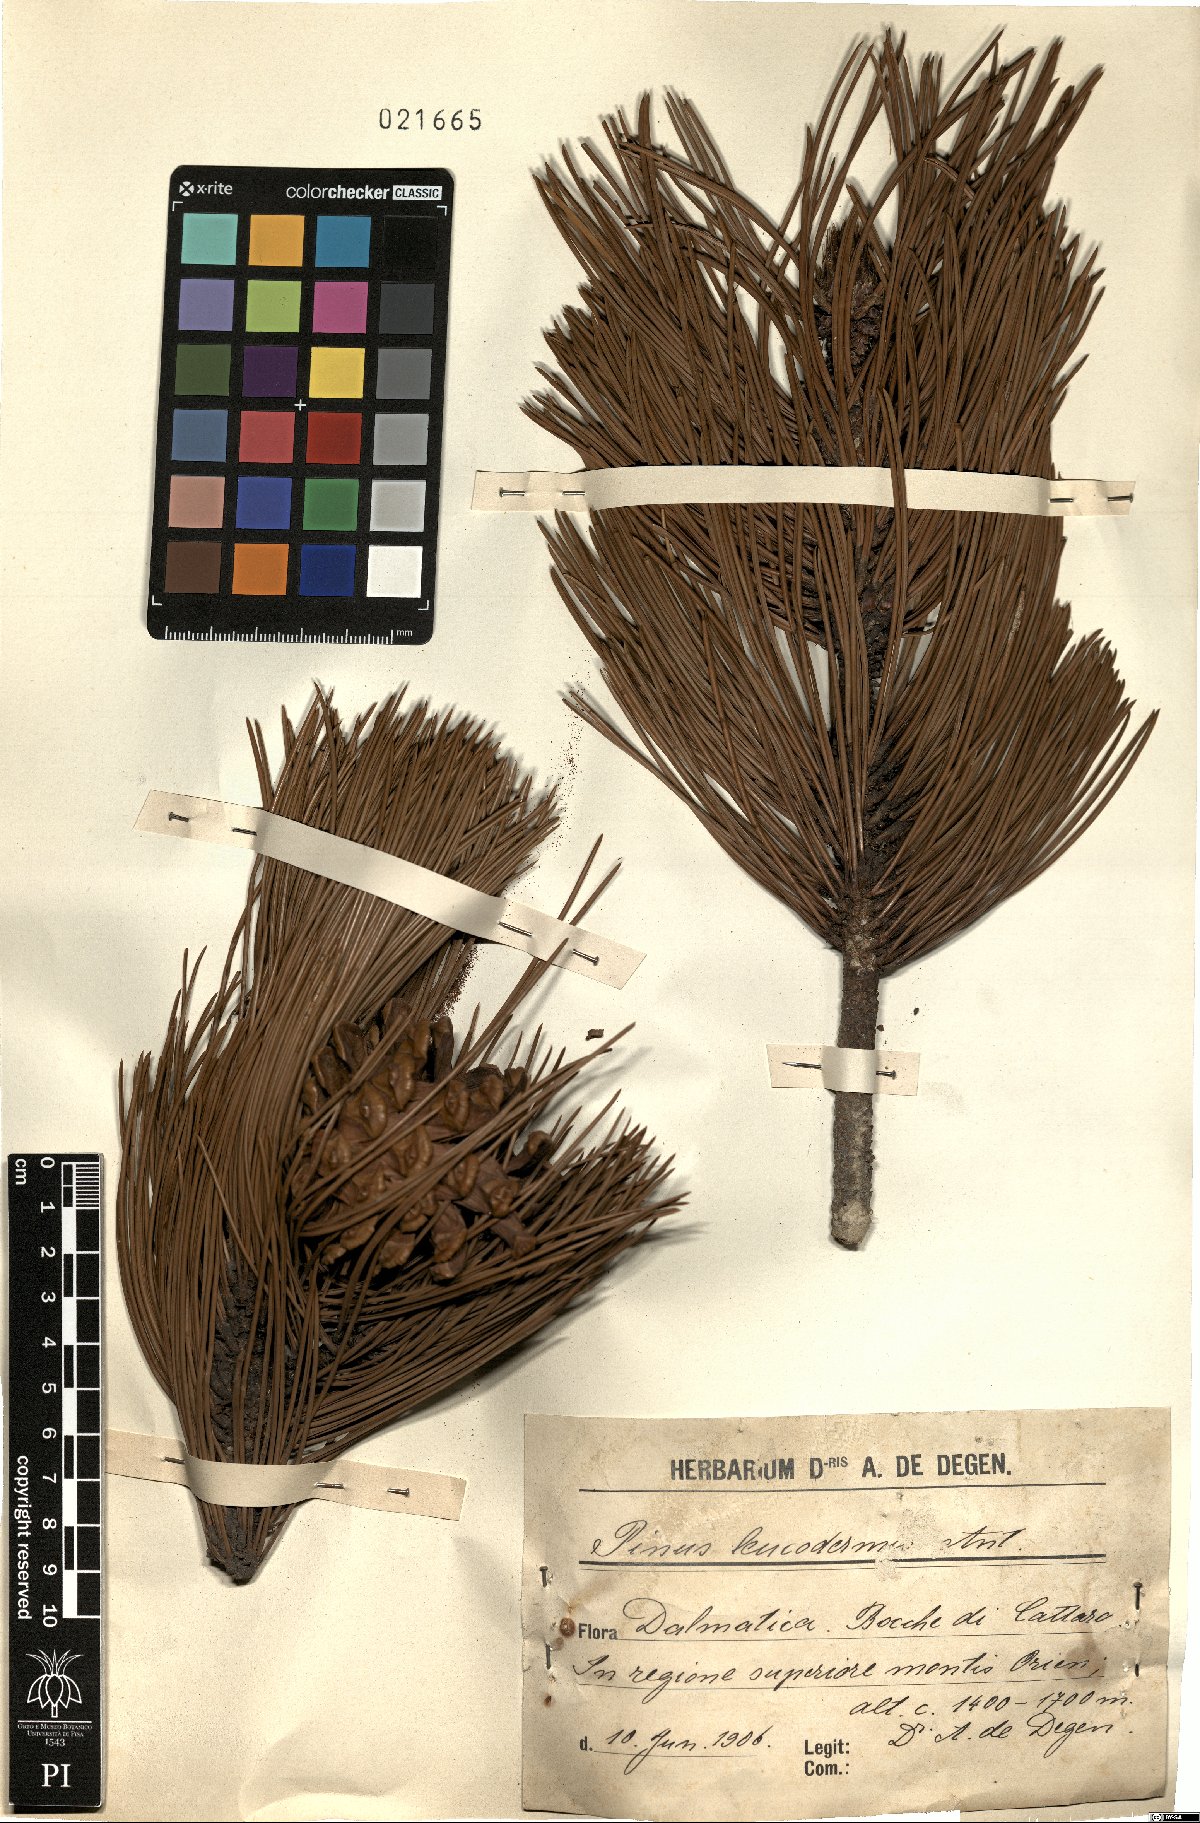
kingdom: Plantae
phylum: Tracheophyta
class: Pinopsida
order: Pinales
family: Pinaceae
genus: Pinus
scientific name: Pinus heldreichii
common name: Bosnian pine
